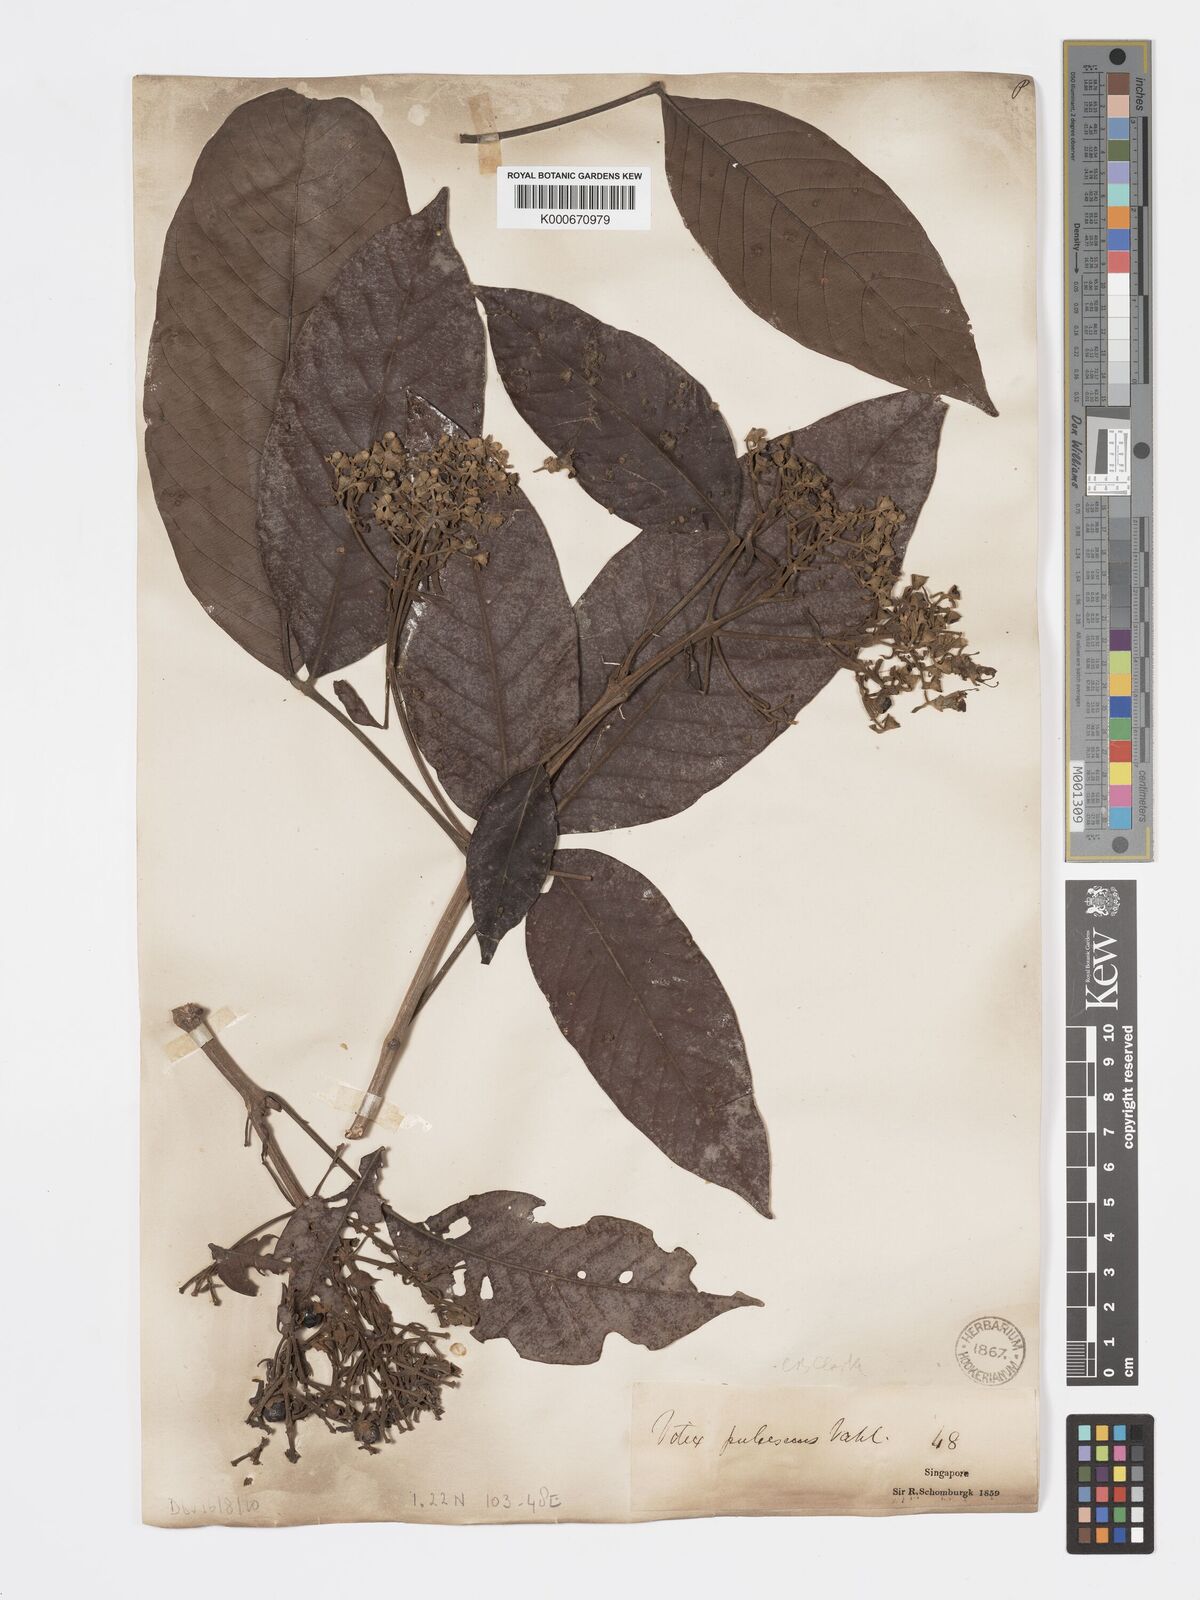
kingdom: Plantae
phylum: Tracheophyta
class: Magnoliopsida
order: Lamiales
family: Lamiaceae
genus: Vitex
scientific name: Vitex pinnata
